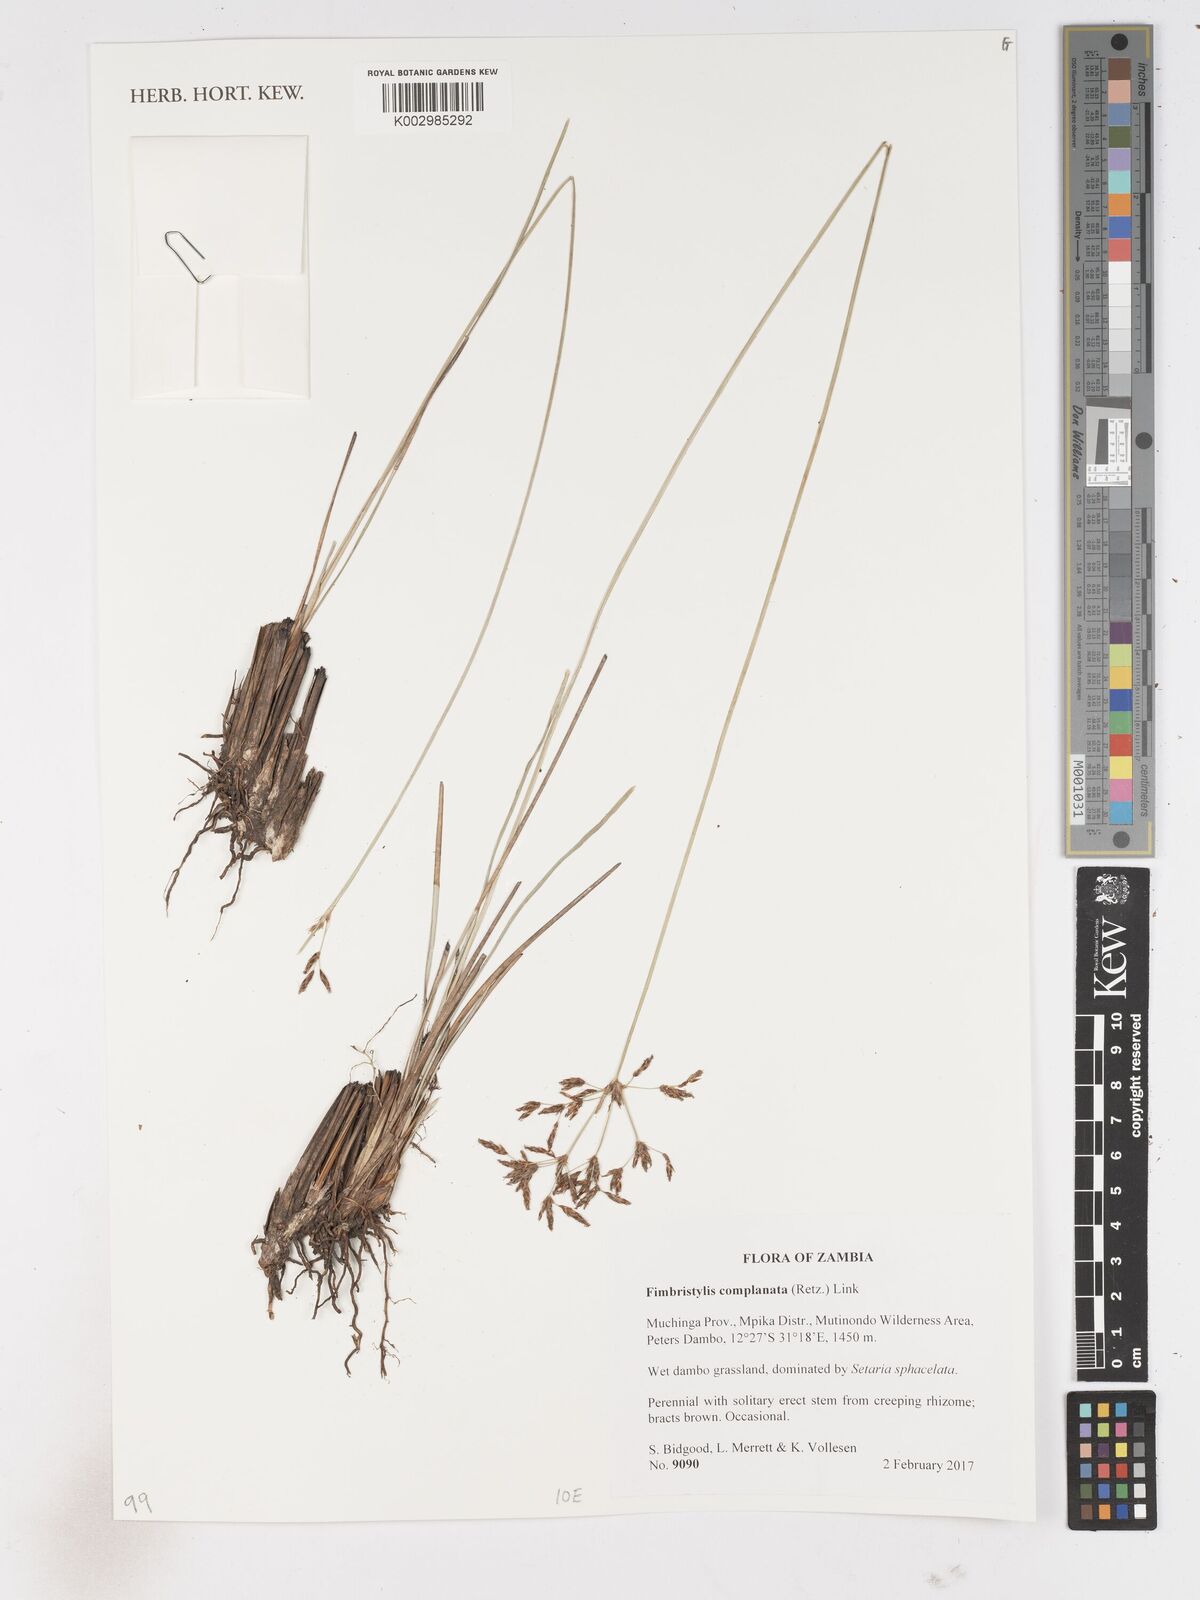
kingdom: Plantae
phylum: Tracheophyta
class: Liliopsida
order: Poales
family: Cyperaceae
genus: Fimbristylis
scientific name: Fimbristylis complanata
